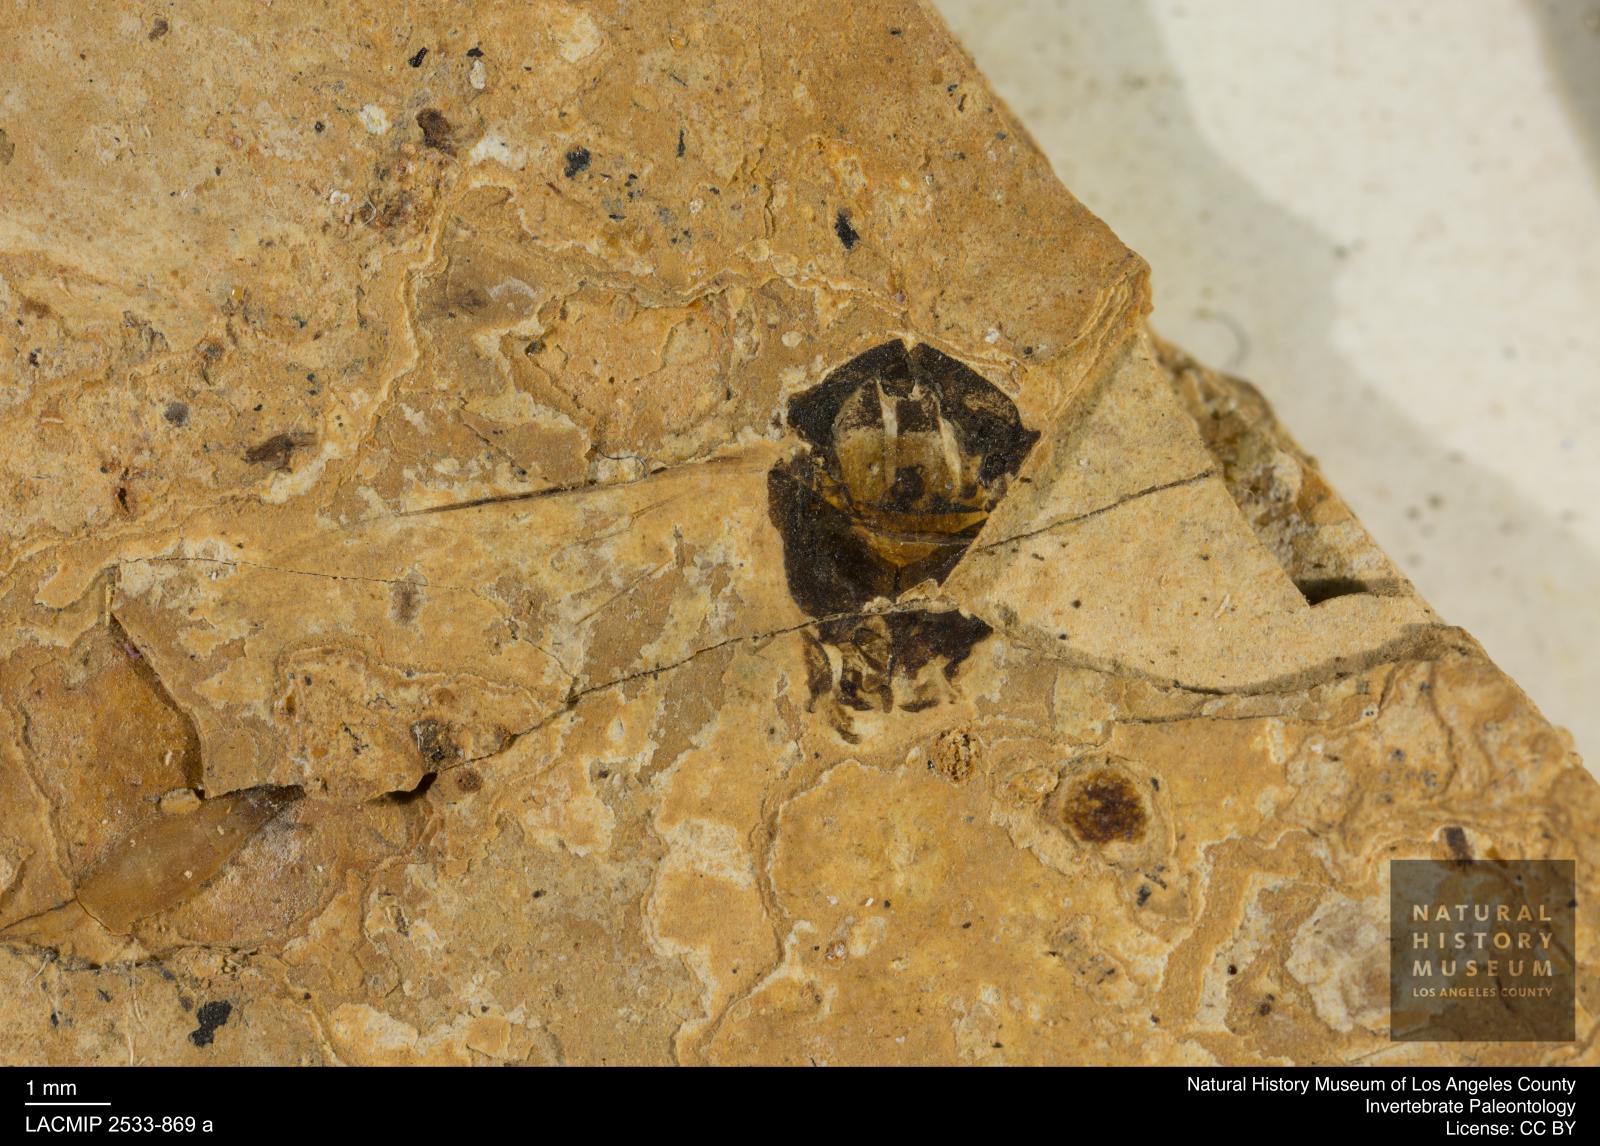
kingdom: Animalia
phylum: Arthropoda
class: Insecta
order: Hymenoptera
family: Vespidae
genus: Vespa
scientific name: Vespa bilineata
